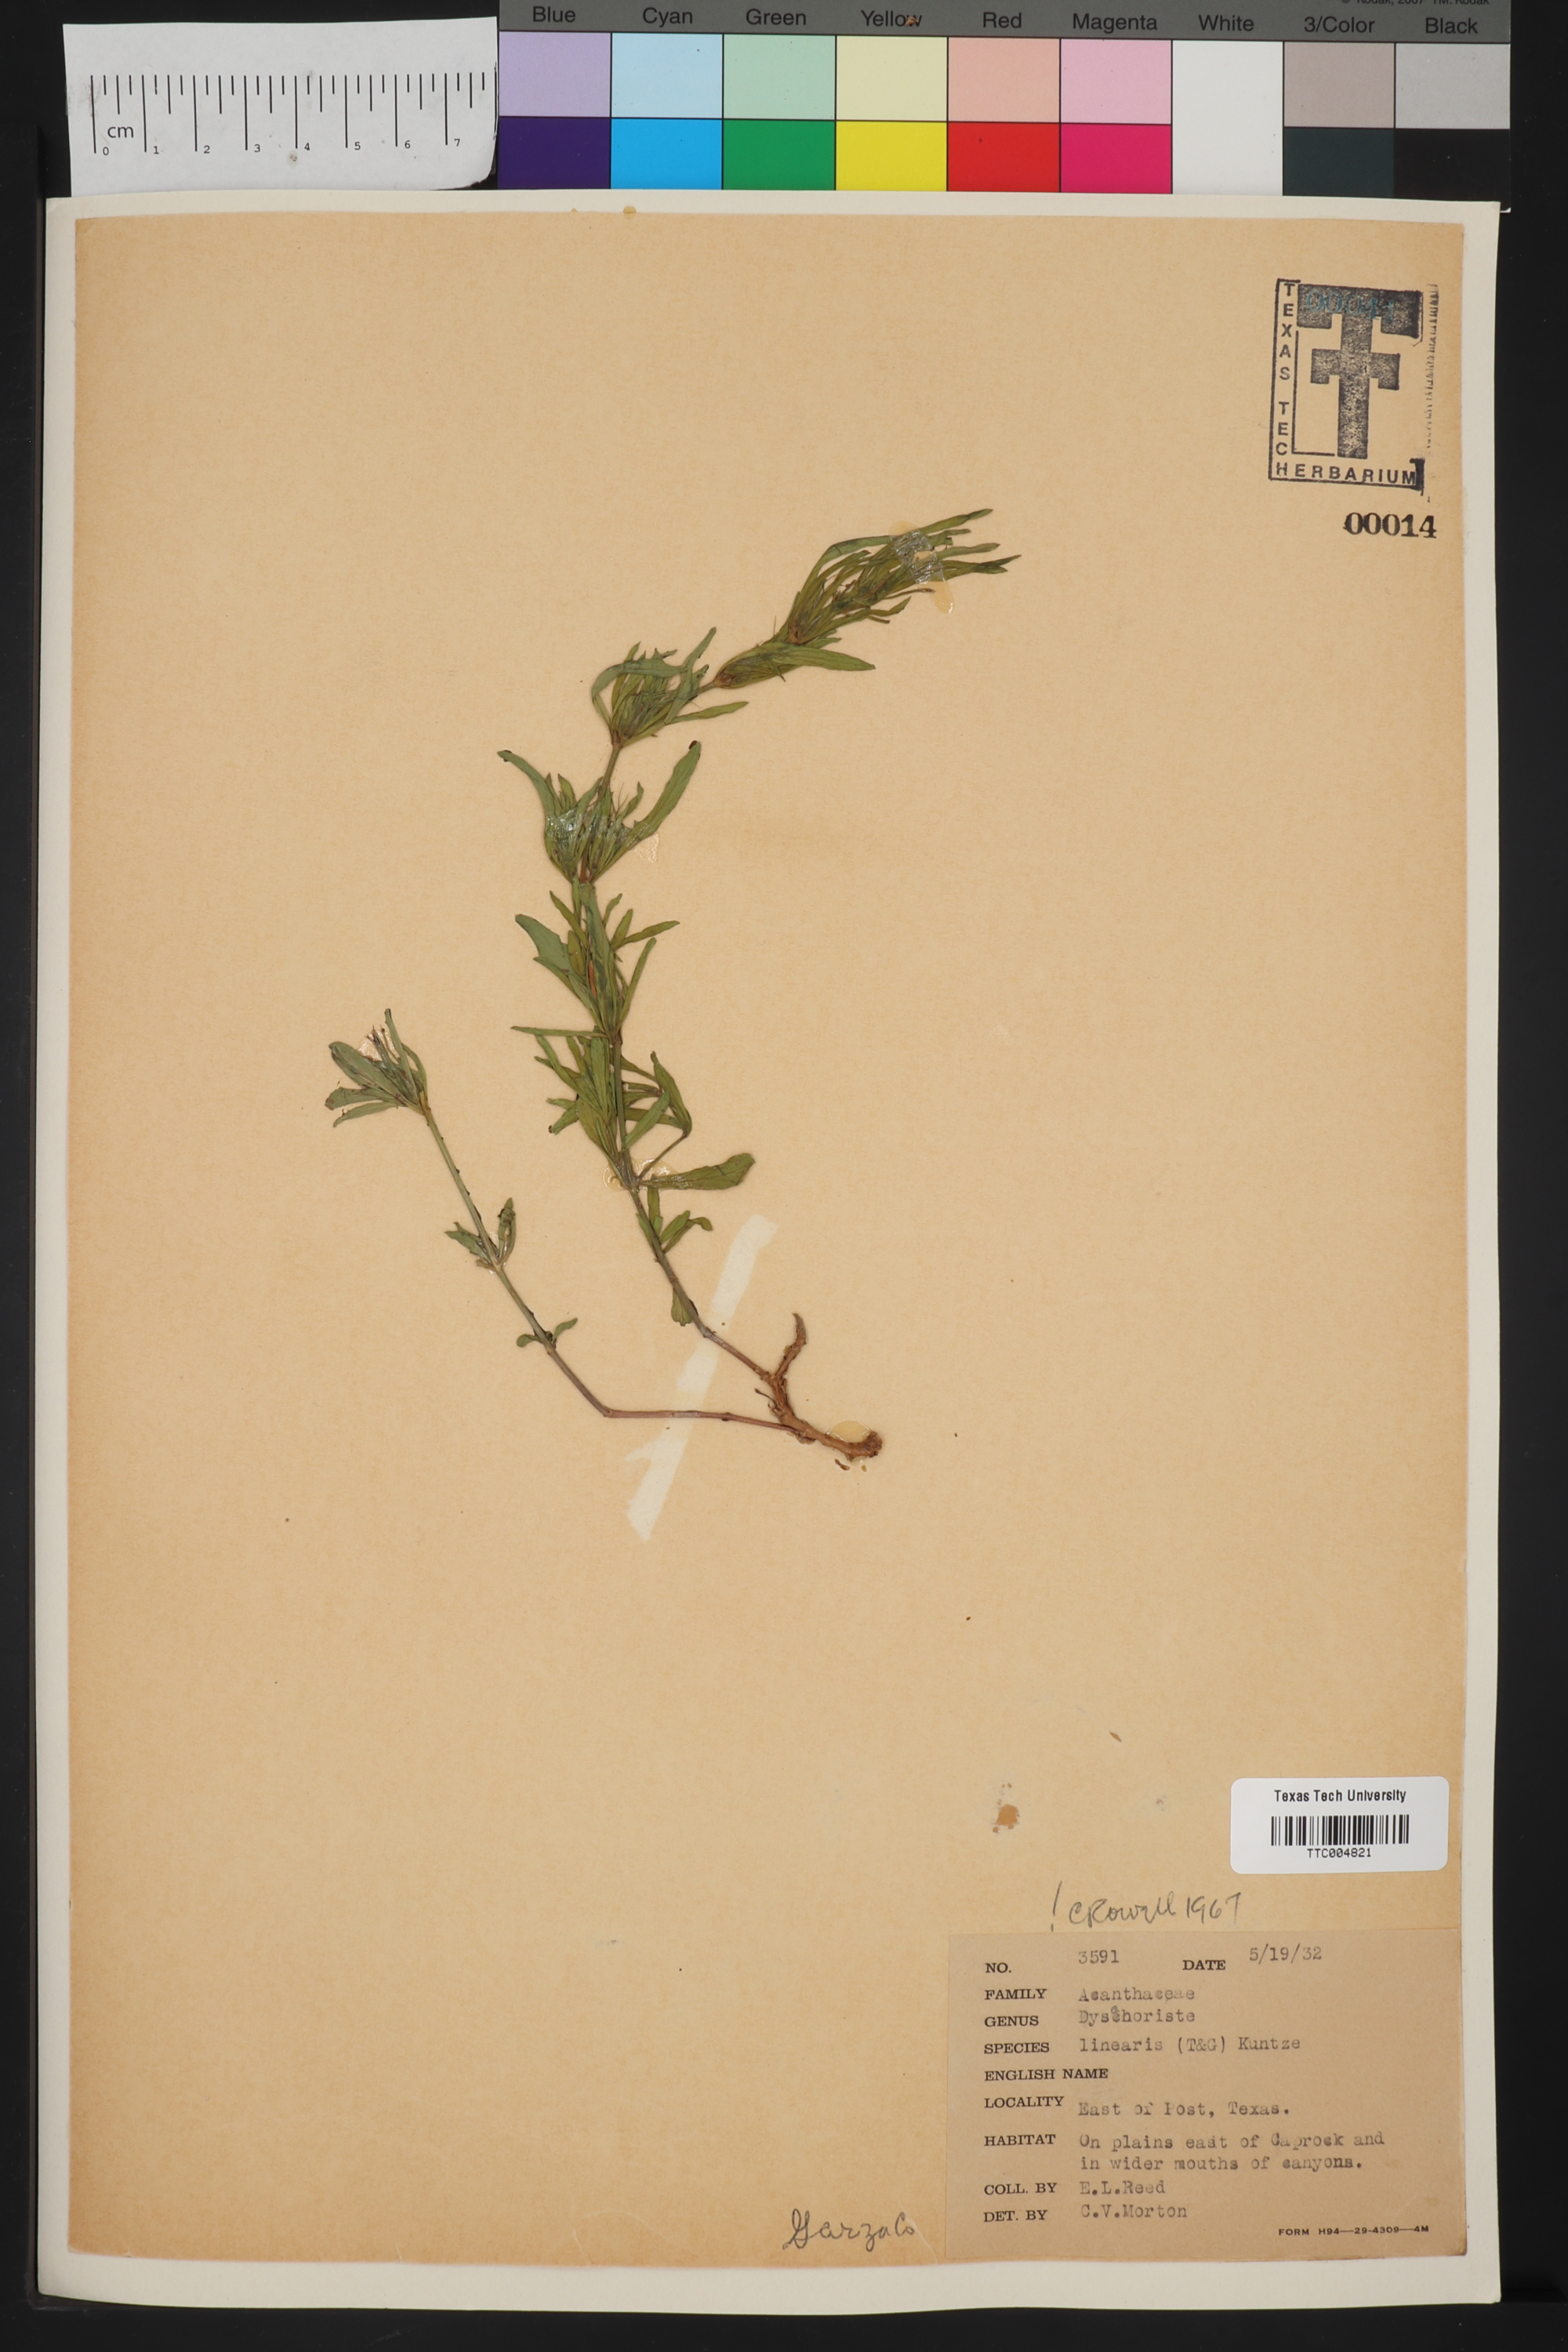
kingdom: Plantae
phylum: Tracheophyta
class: Magnoliopsida
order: Lamiales
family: Acanthaceae
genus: Dyschoriste
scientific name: Dyschoriste linearis
